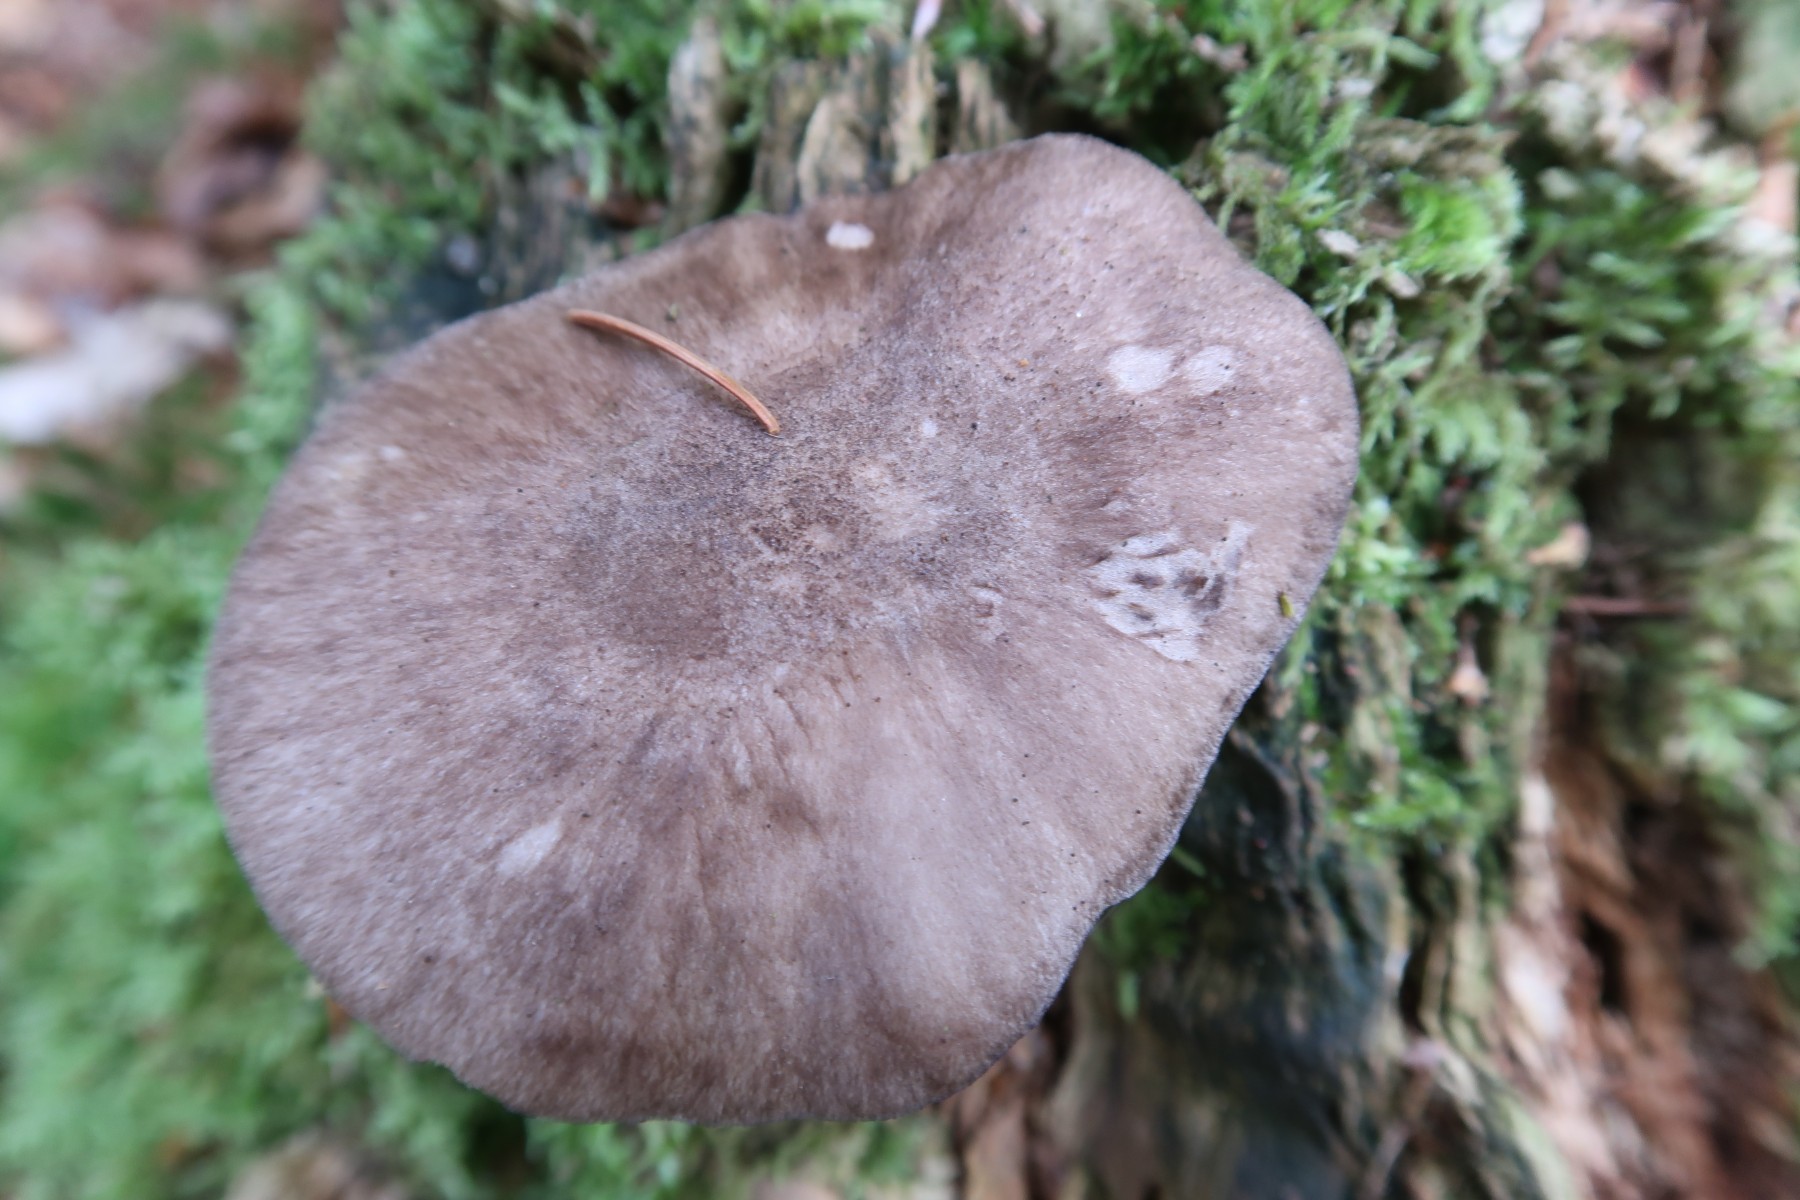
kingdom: Fungi
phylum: Basidiomycota
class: Agaricomycetes
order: Agaricales
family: Pluteaceae
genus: Pluteus
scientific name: Pluteus atromarginatus
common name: sortrandet skærmhat
